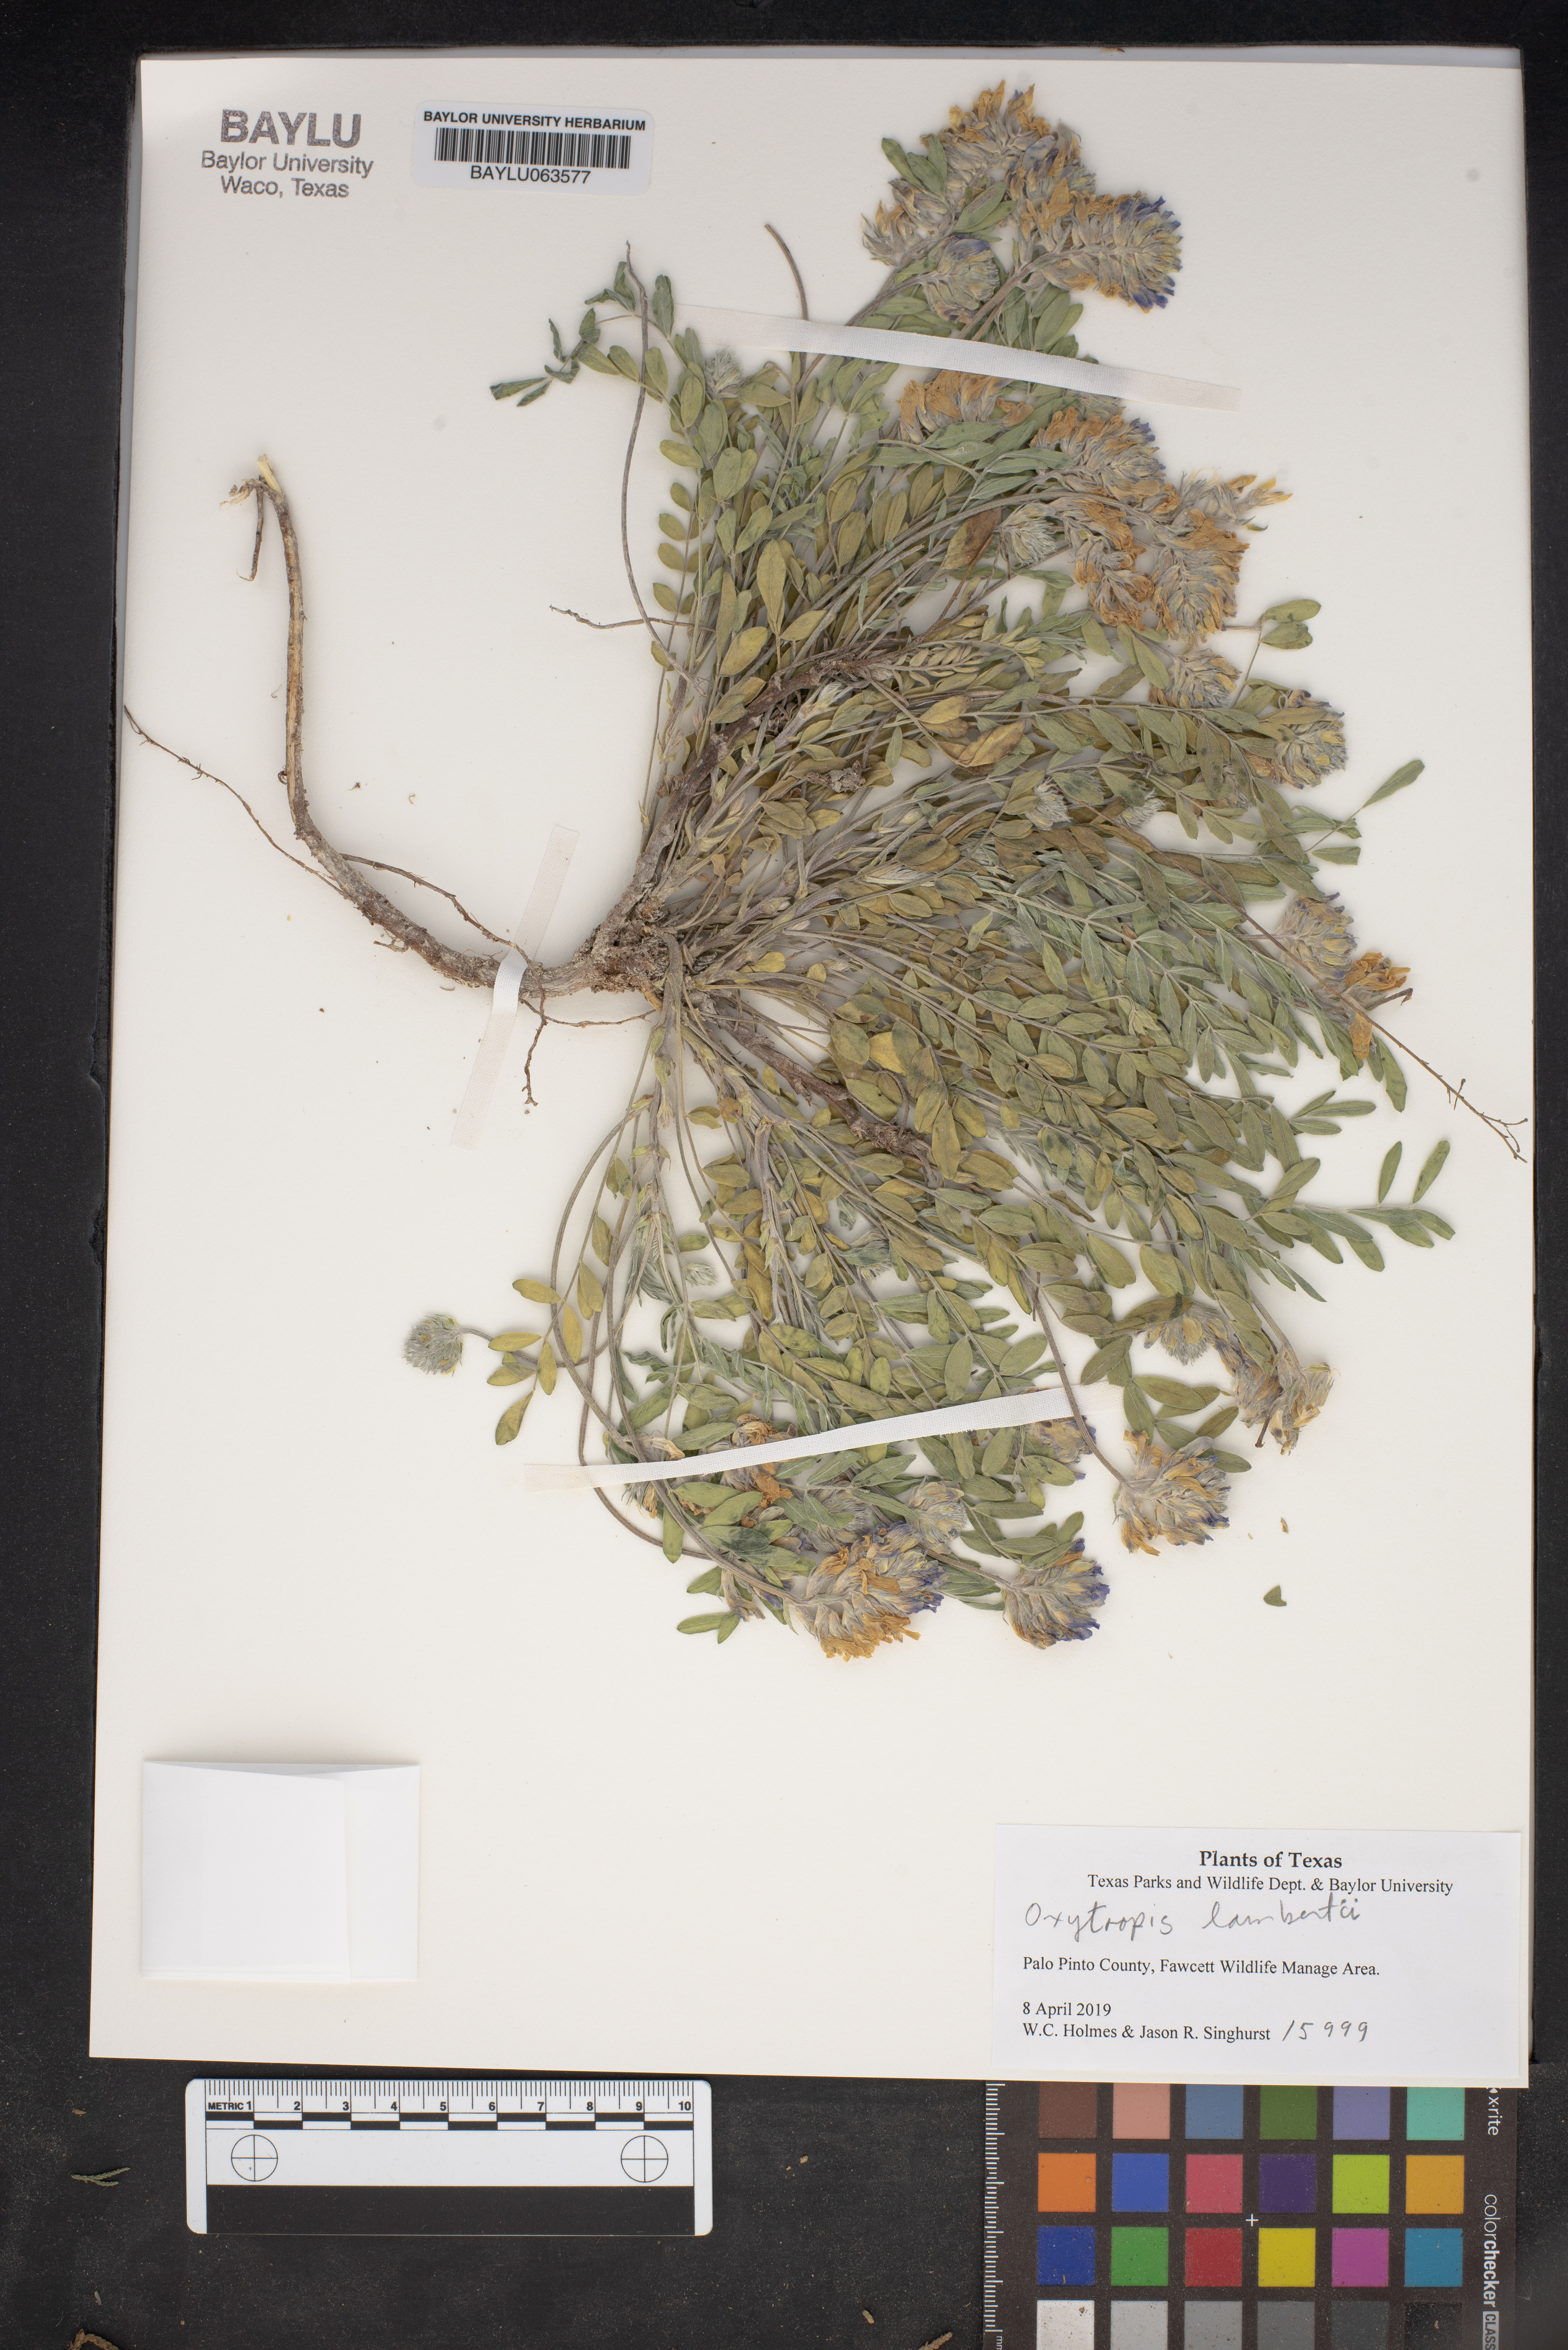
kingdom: Plantae
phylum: Tracheophyta
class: Magnoliopsida
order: Fabales
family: Fabaceae
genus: Oxytropis
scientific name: Oxytropis lambertii
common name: Purple locoweed
